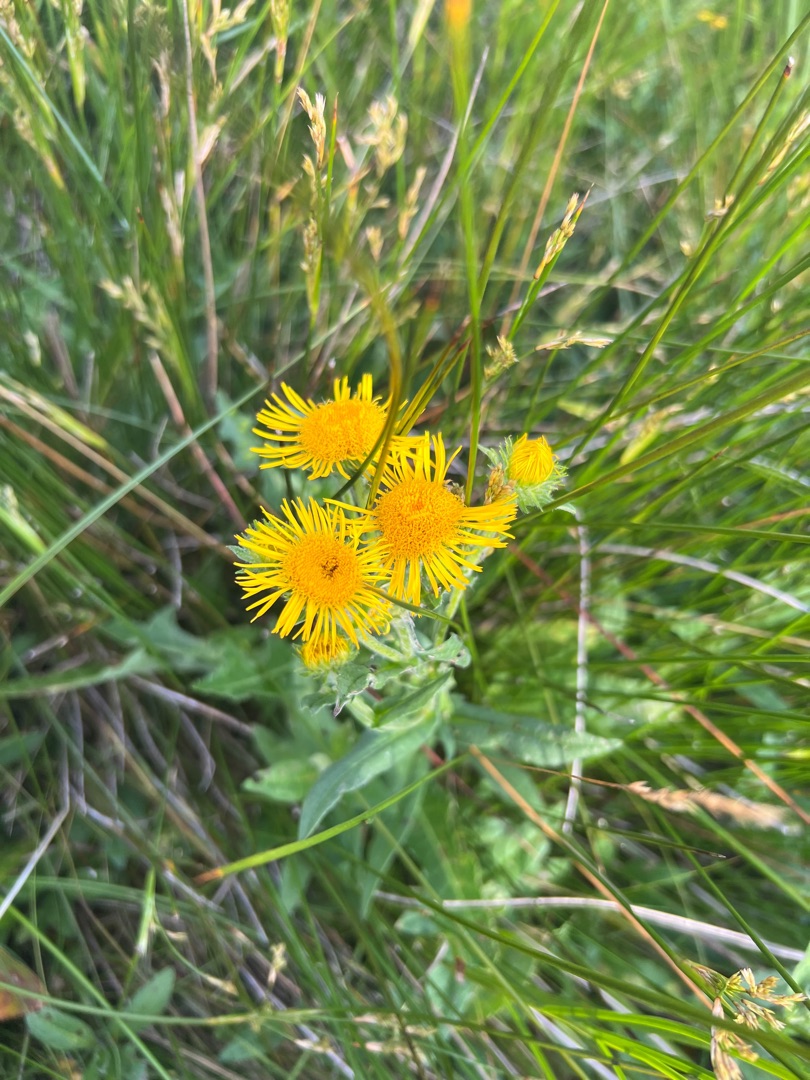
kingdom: Plantae
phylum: Tracheophyta
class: Magnoliopsida
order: Asterales
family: Asteraceae
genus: Pentanema
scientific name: Pentanema britannicum
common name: Soløje-alant
